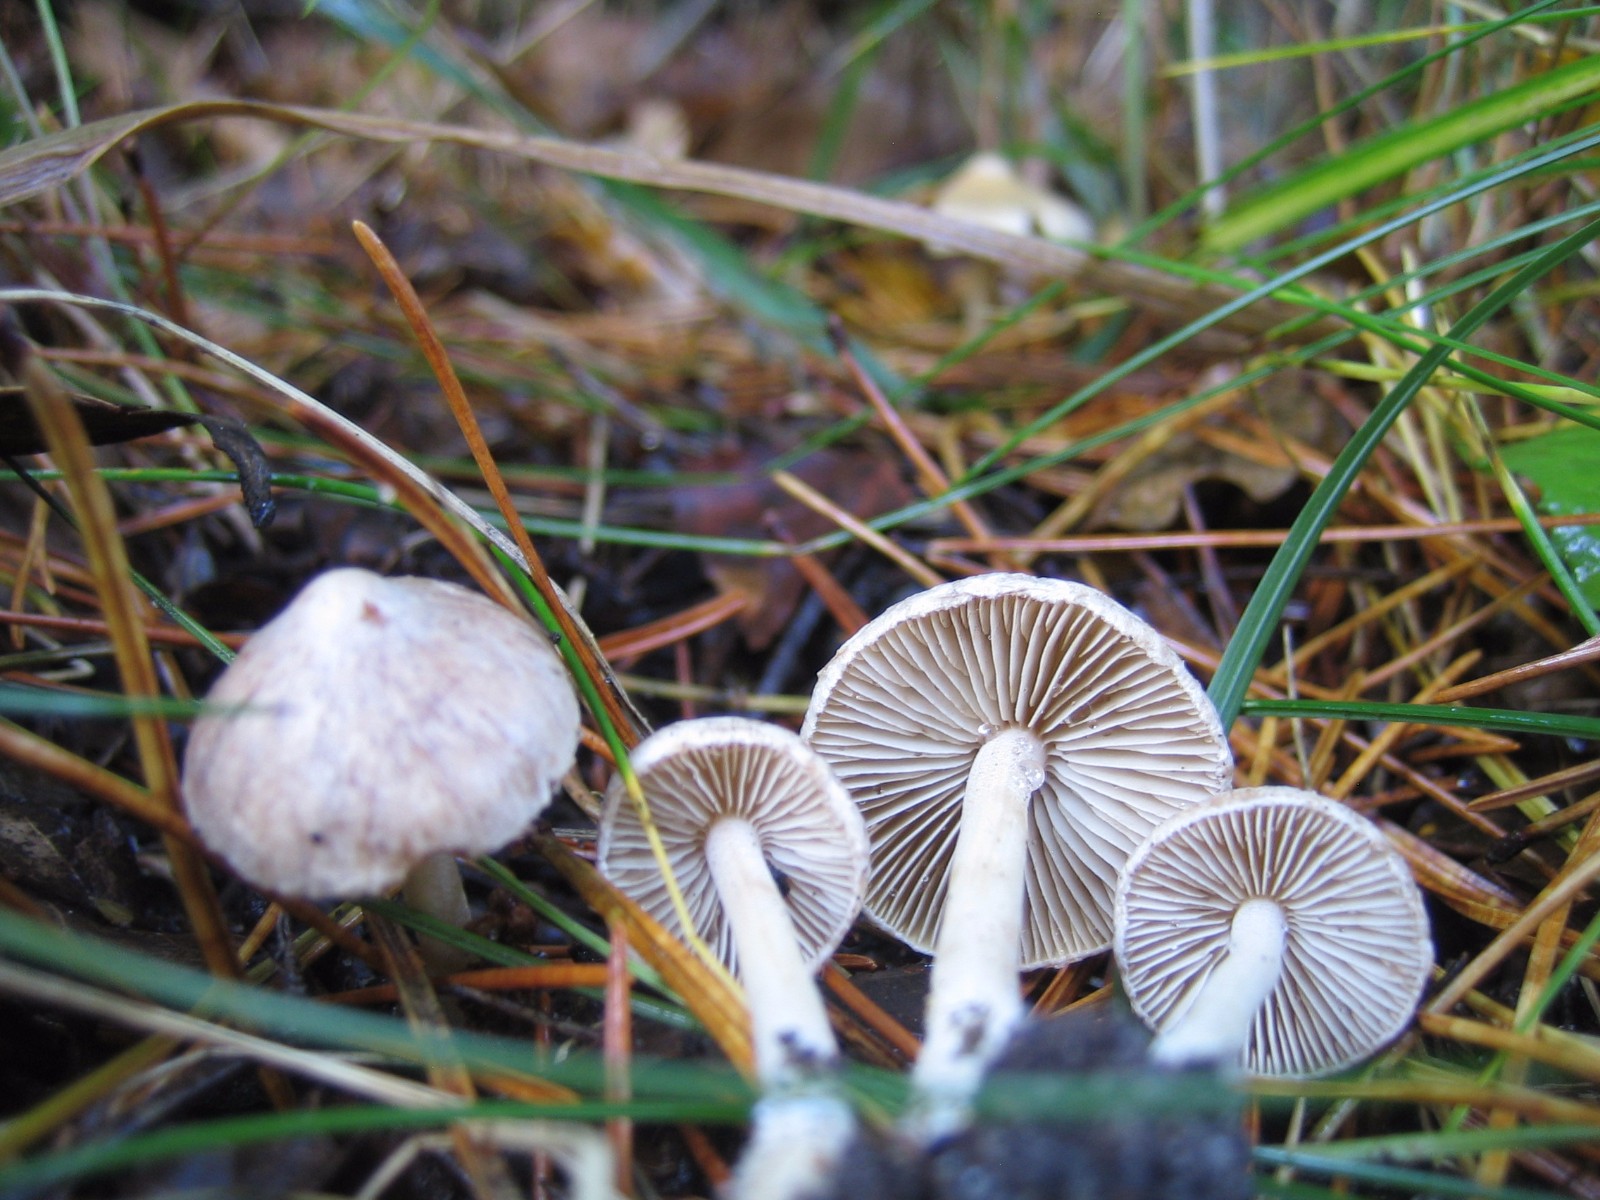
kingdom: Fungi
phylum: Basidiomycota
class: Agaricomycetes
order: Agaricales
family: Inocybaceae
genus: Inocybe
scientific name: Inocybe
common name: trævlhat
